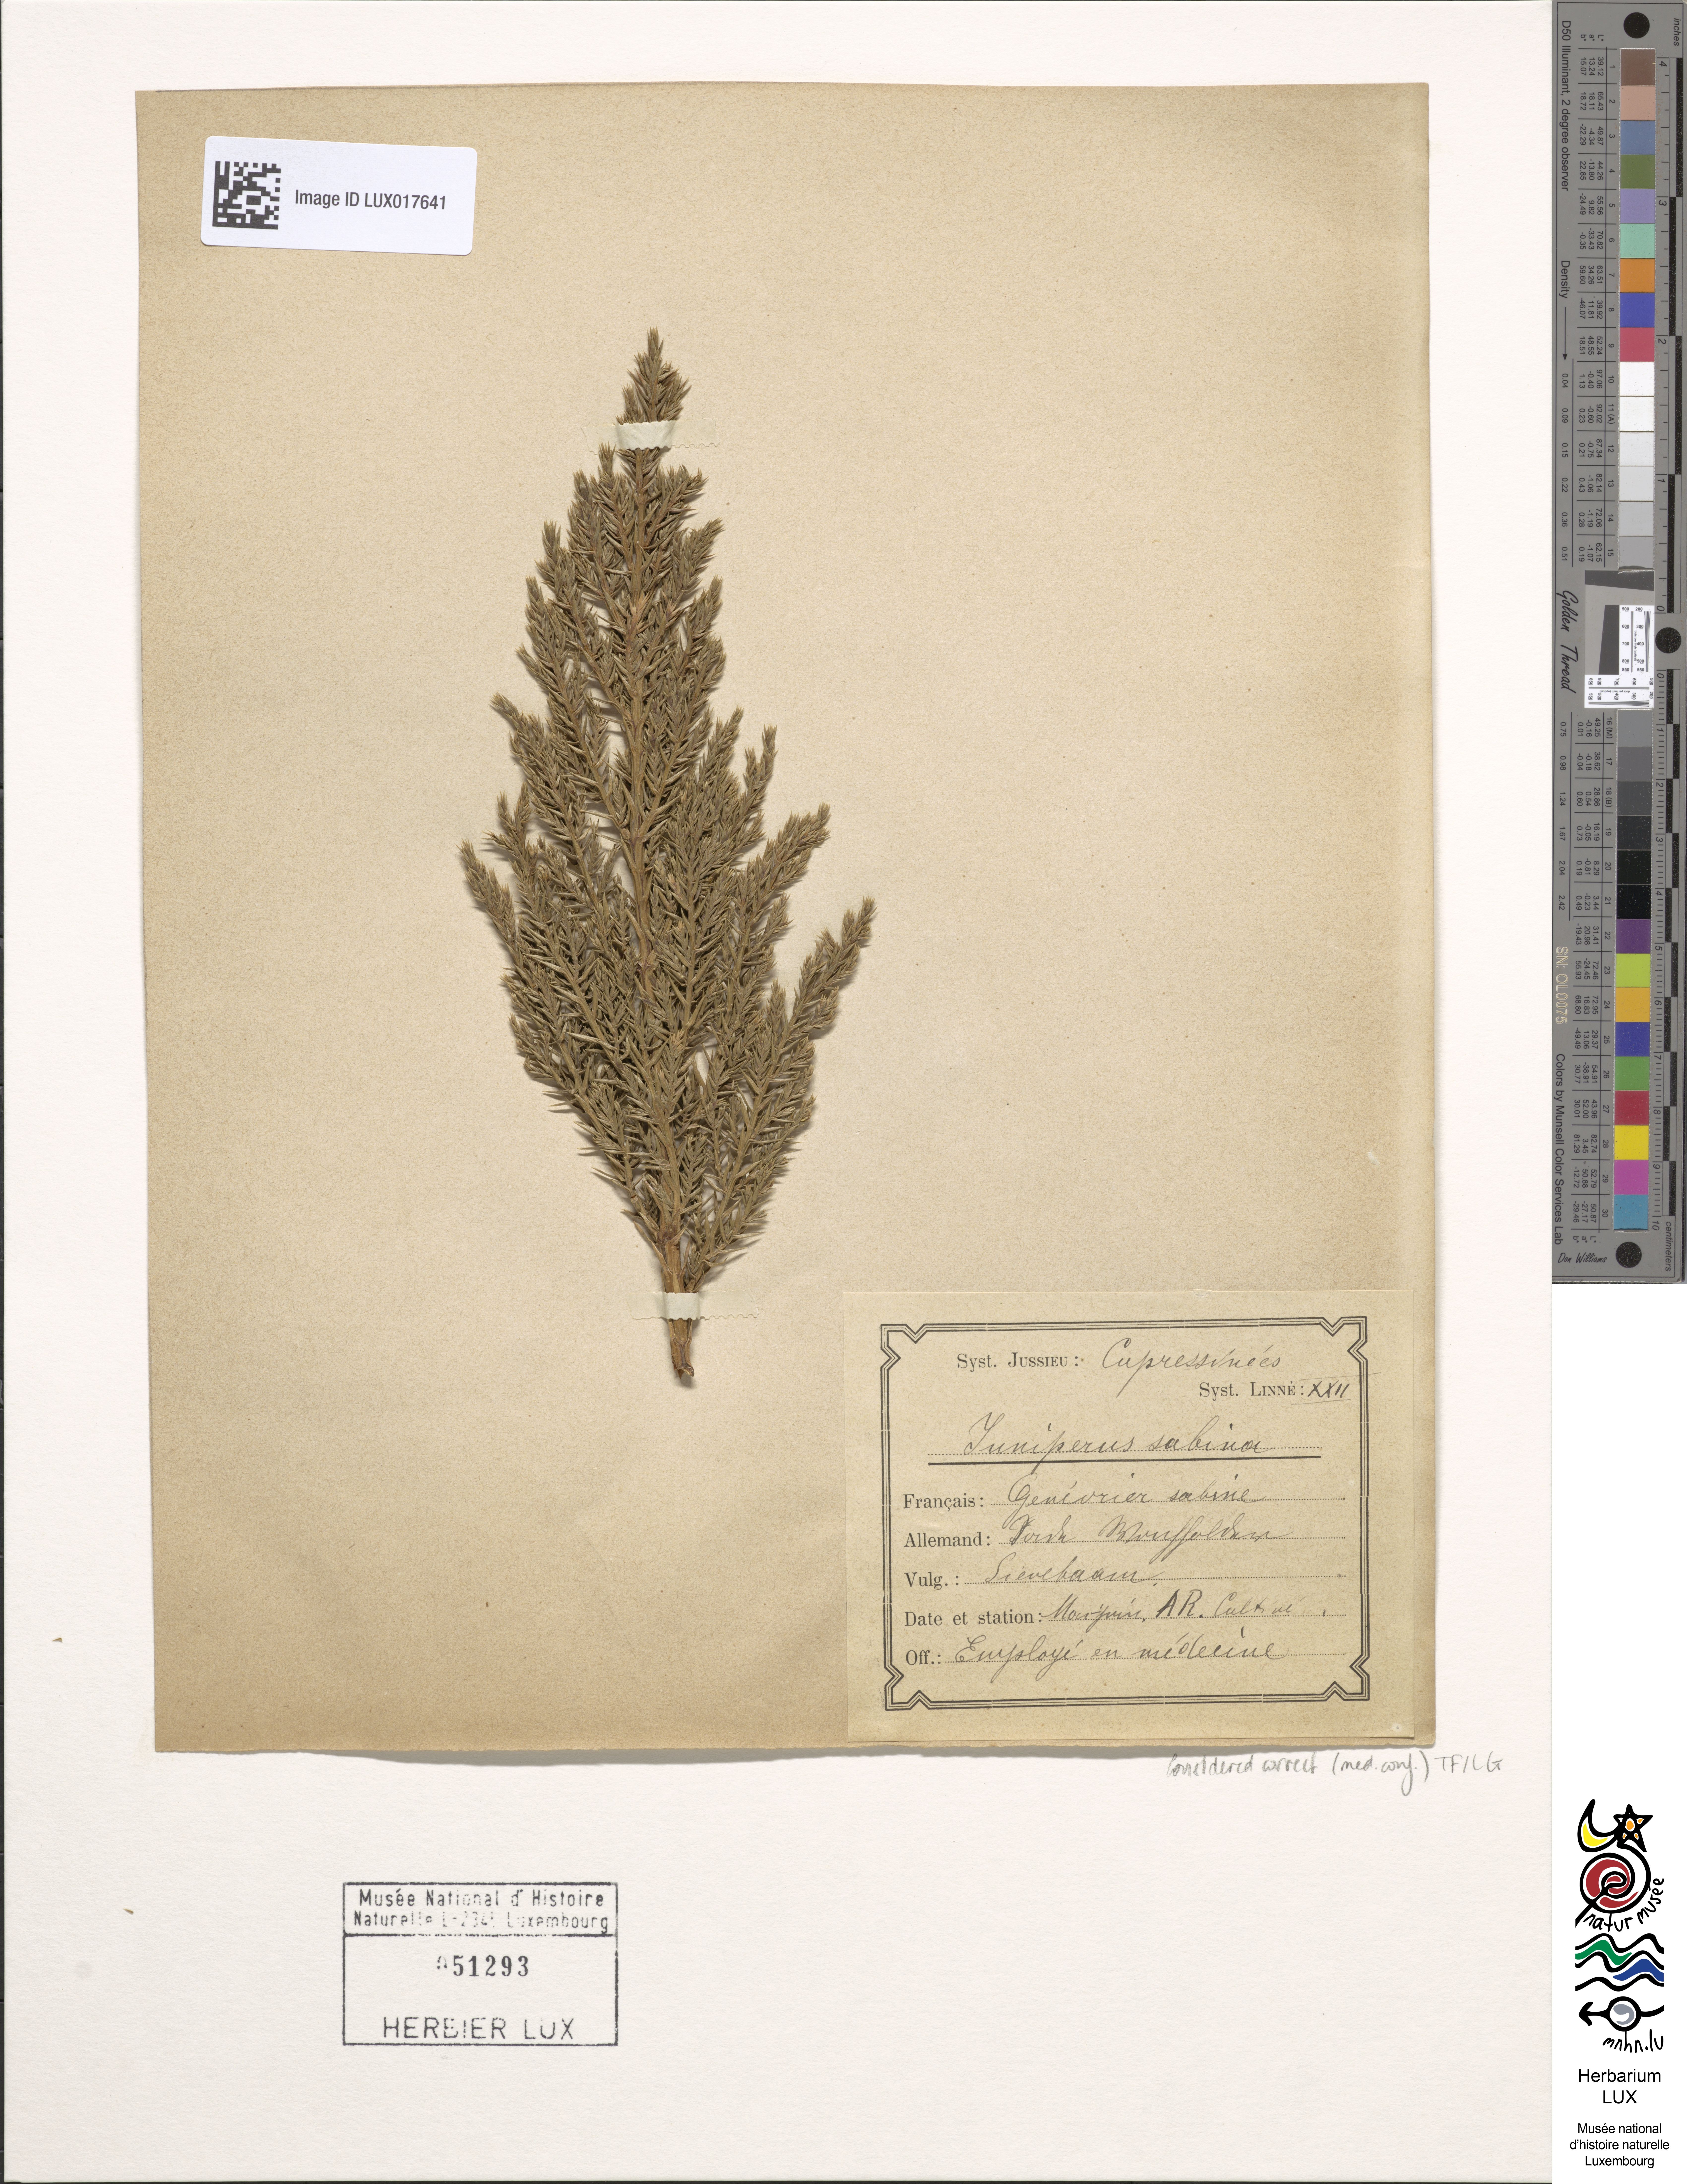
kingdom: Plantae
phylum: Tracheophyta
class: Pinopsida
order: Pinales
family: Cupressaceae
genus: Juniperus
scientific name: Juniperus sabina
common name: Savin
